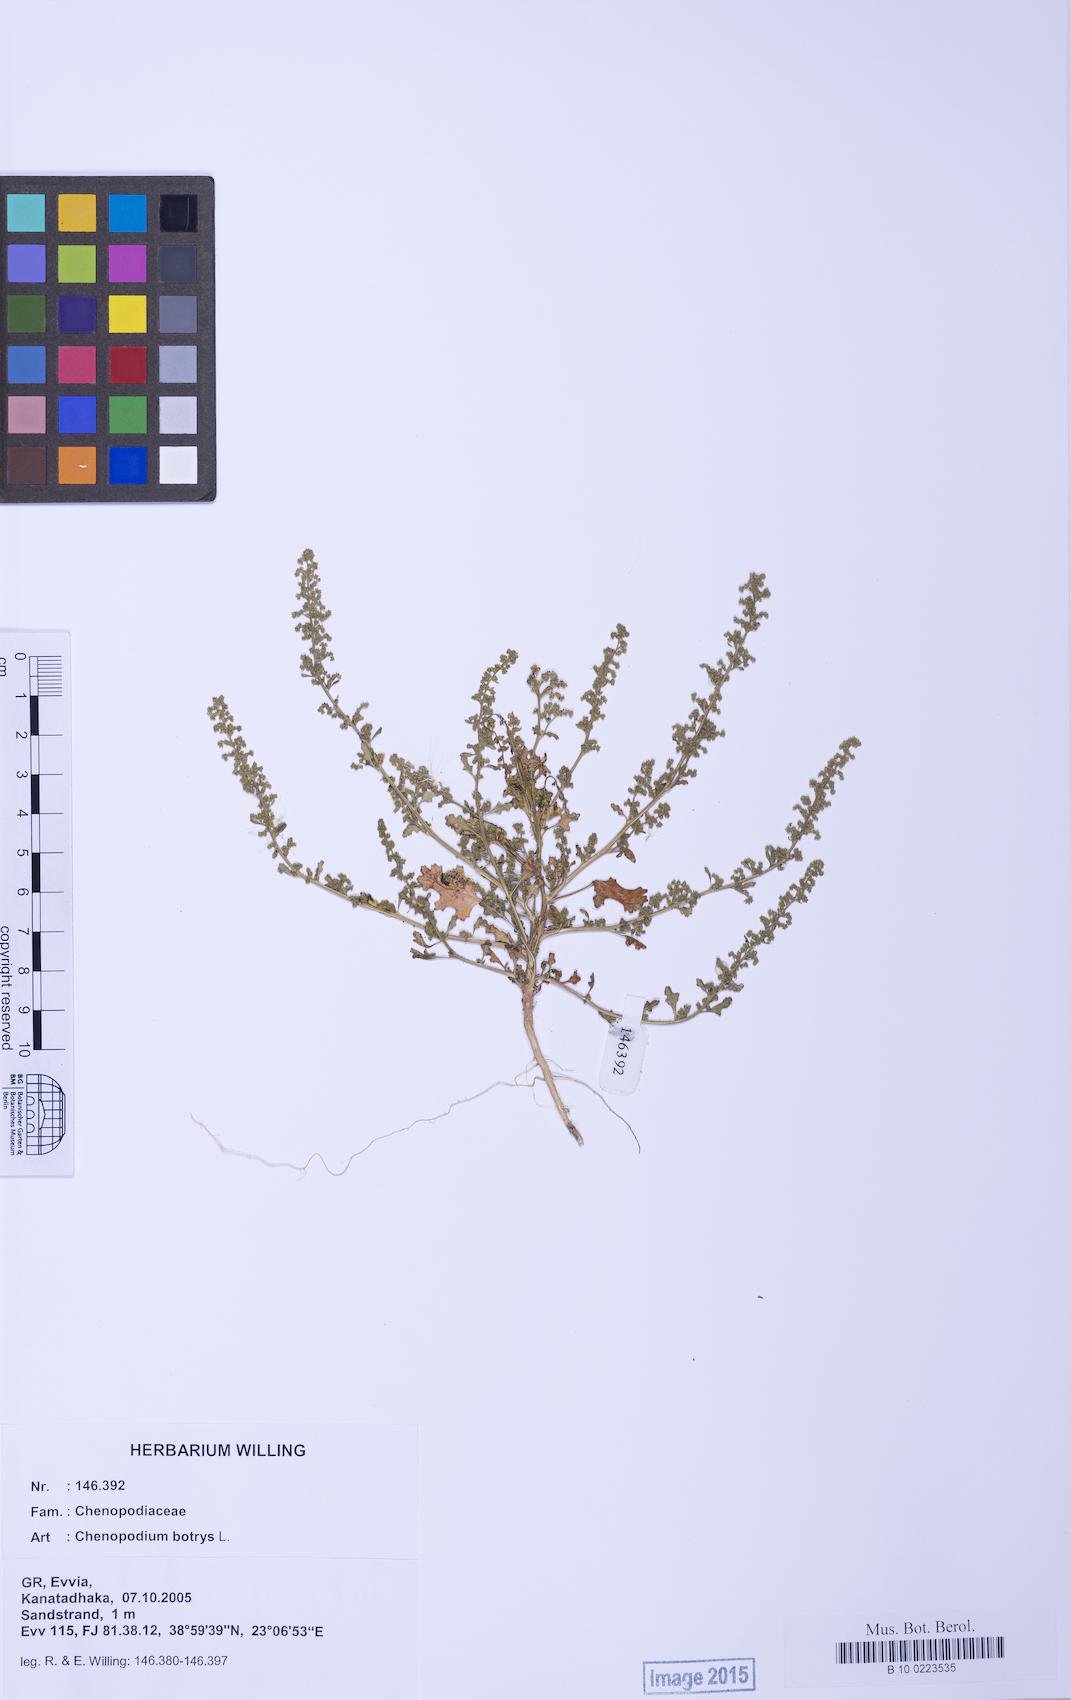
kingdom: Plantae
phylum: Tracheophyta
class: Magnoliopsida
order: Caryophyllales
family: Amaranthaceae
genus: Dysphania
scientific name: Dysphania botrys
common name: Feather-geranium
